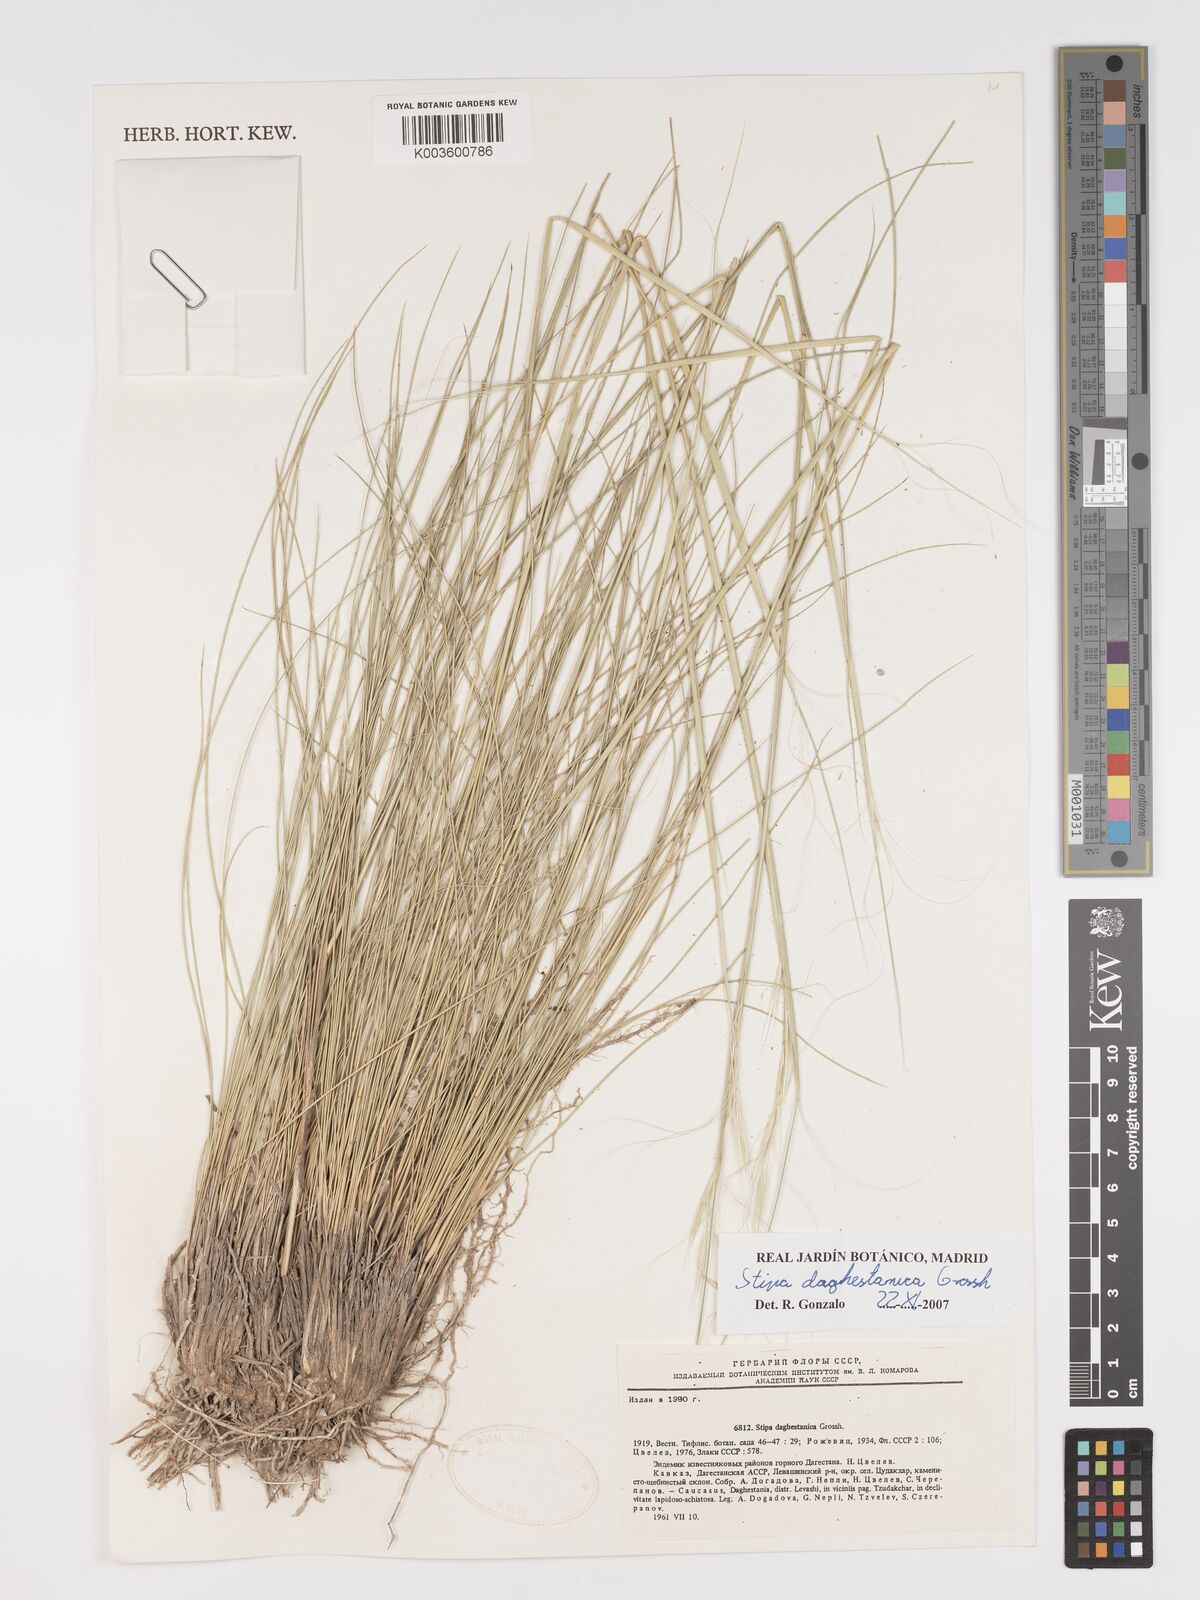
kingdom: Plantae
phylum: Tracheophyta
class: Liliopsida
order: Poales
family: Poaceae
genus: Stipa
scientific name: Stipa daghestanica
